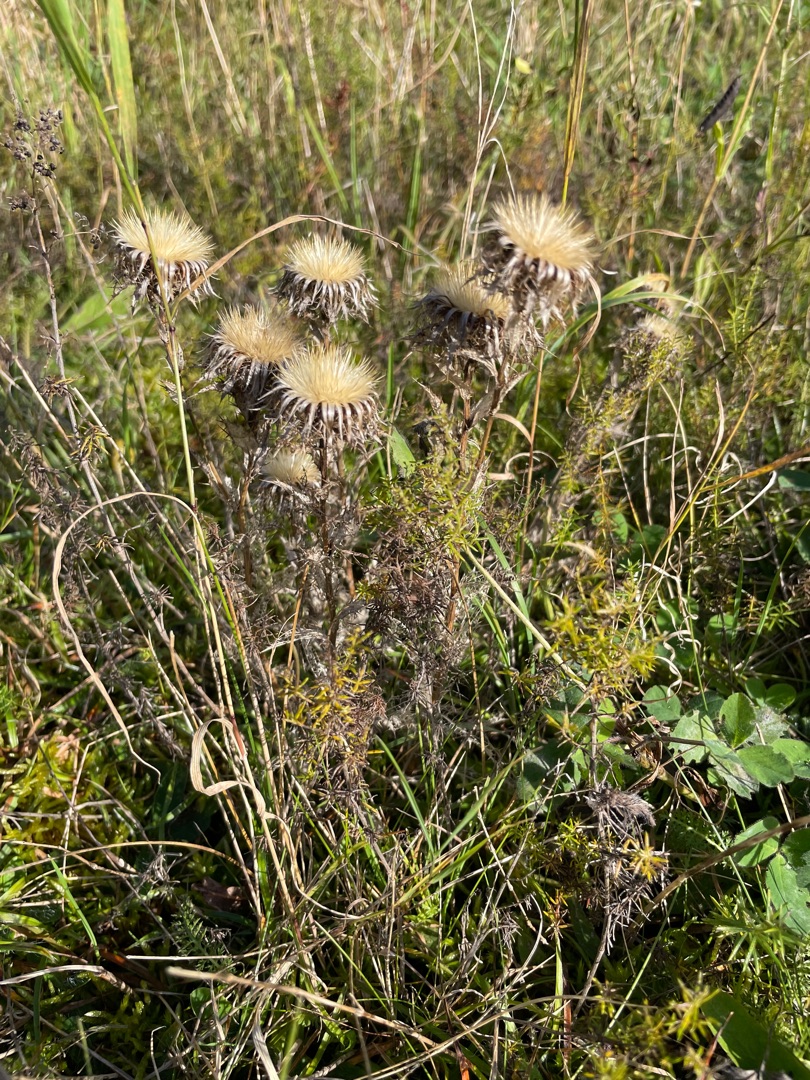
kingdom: Plantae
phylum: Tracheophyta
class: Magnoliopsida
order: Asterales
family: Asteraceae
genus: Carlina
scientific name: Carlina vulgaris
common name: Bakketidsel
